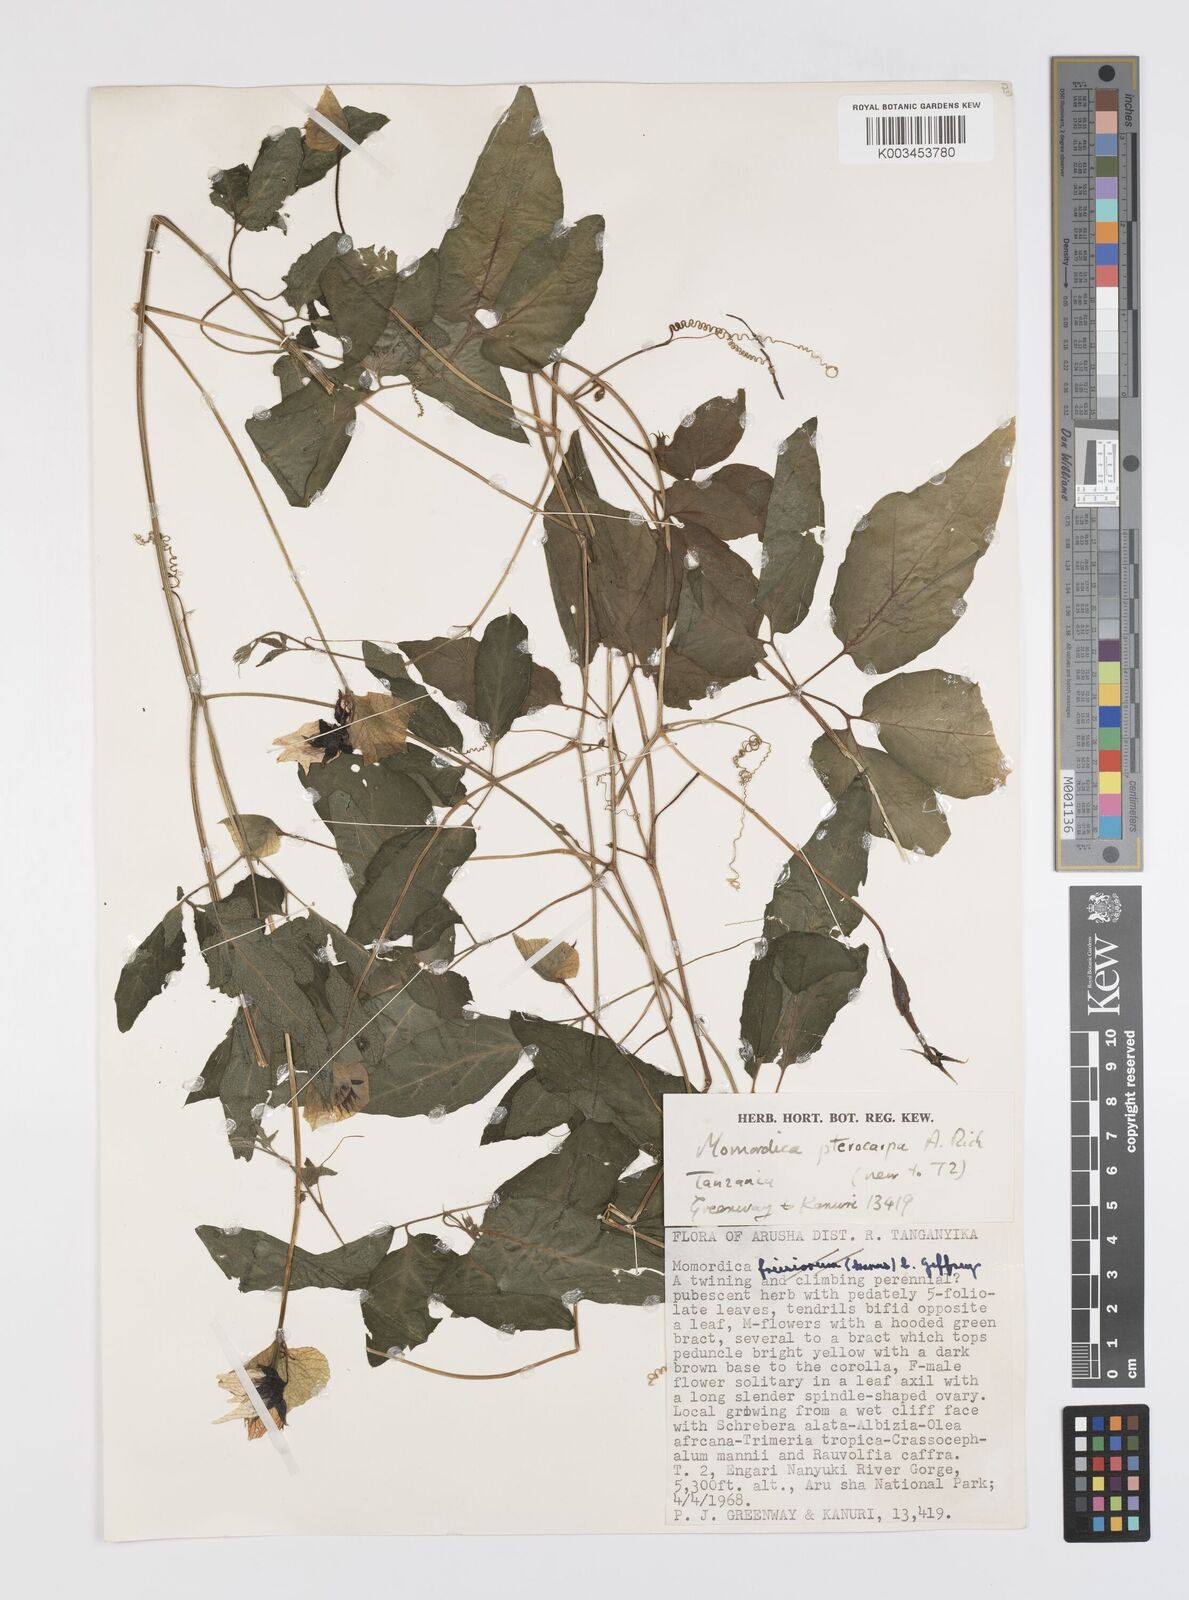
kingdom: Plantae
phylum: Tracheophyta
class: Magnoliopsida
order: Cucurbitales
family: Cucurbitaceae
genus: Momordica
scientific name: Momordica pterocarpa
